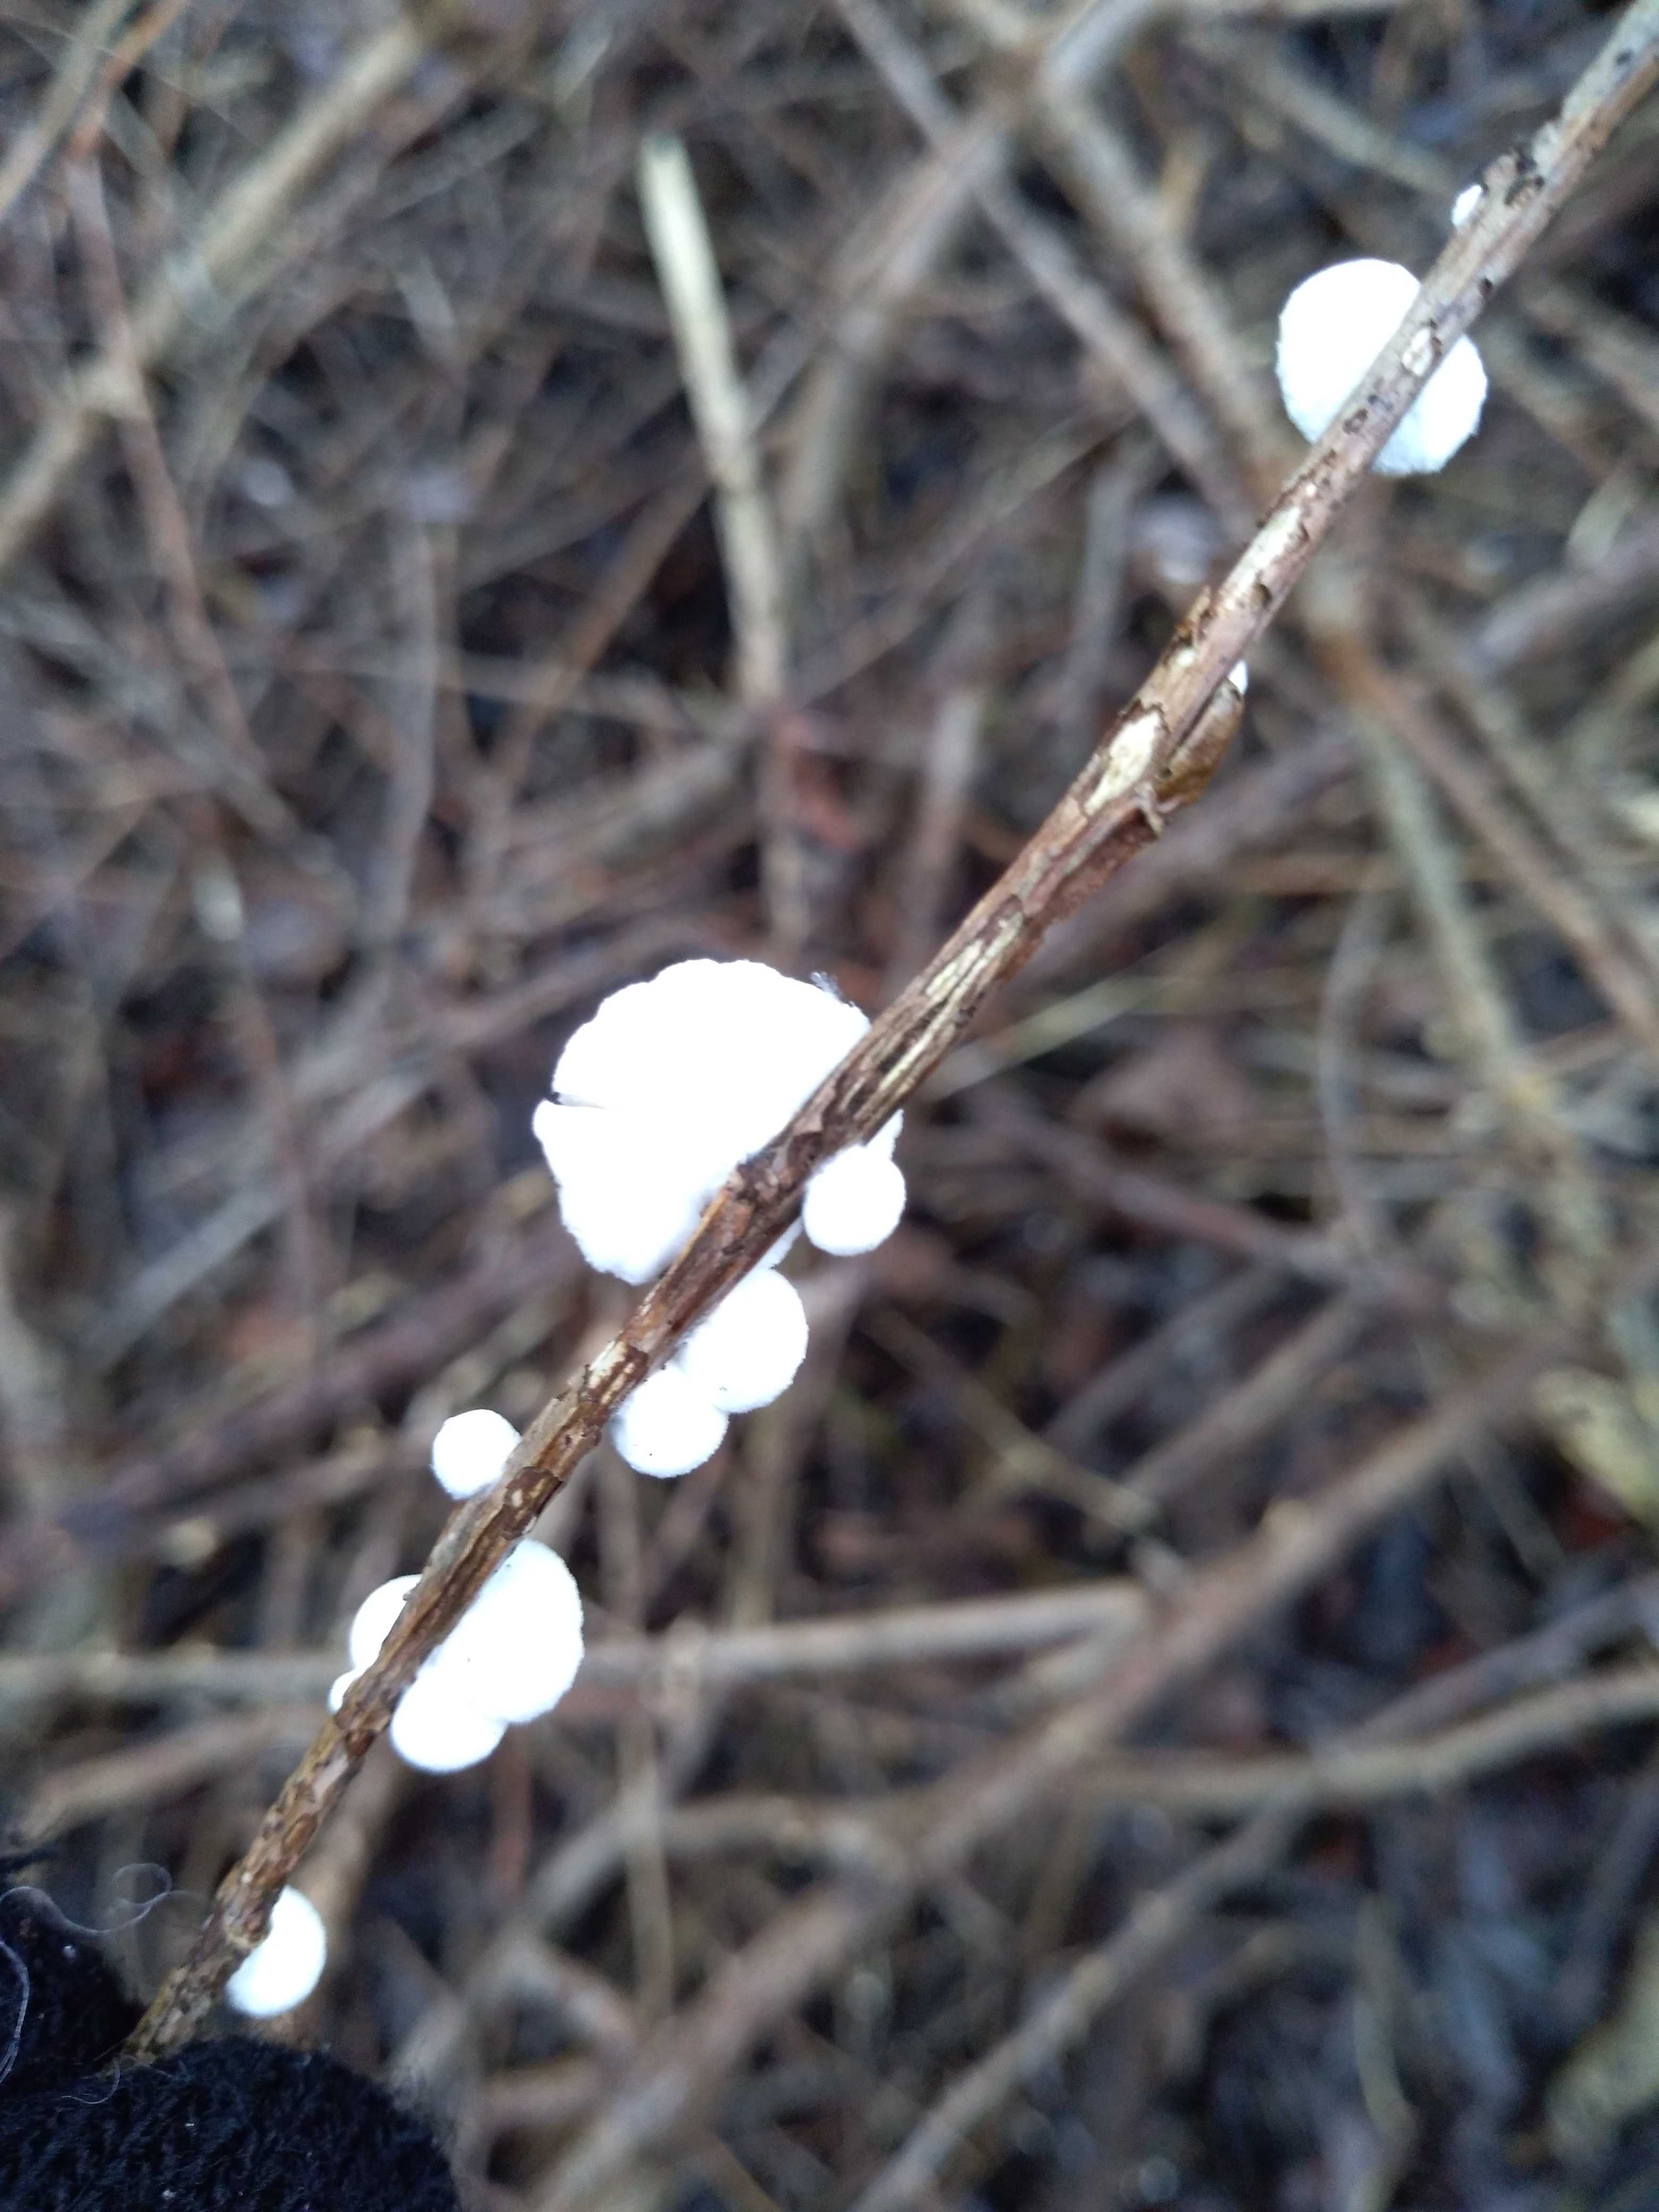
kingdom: Fungi
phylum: Basidiomycota
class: Agaricomycetes
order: Agaricales
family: Crepidotaceae
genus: Crepidotus
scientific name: Crepidotus
